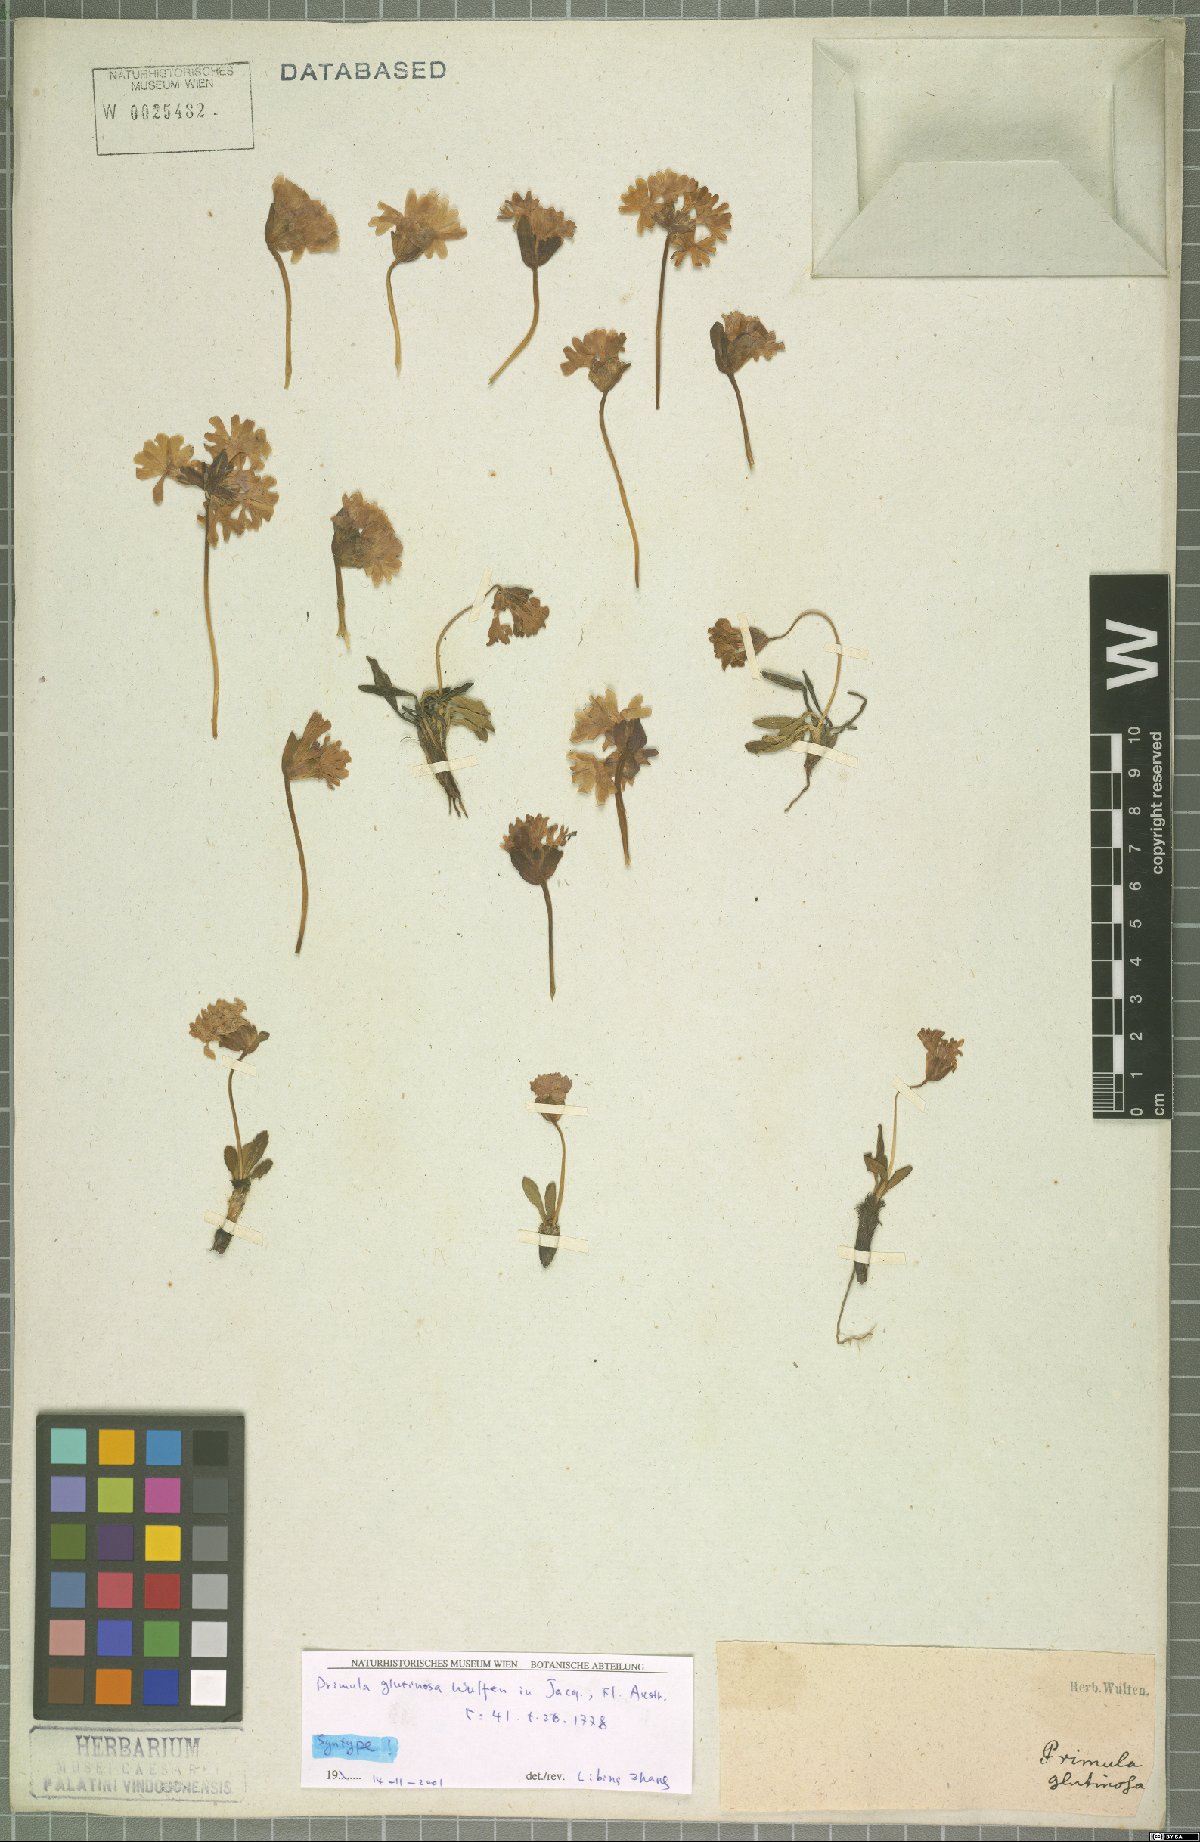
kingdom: Plantae
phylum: Tracheophyta
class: Magnoliopsida
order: Ericales
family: Primulaceae
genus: Primula
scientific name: Primula glutinosa
